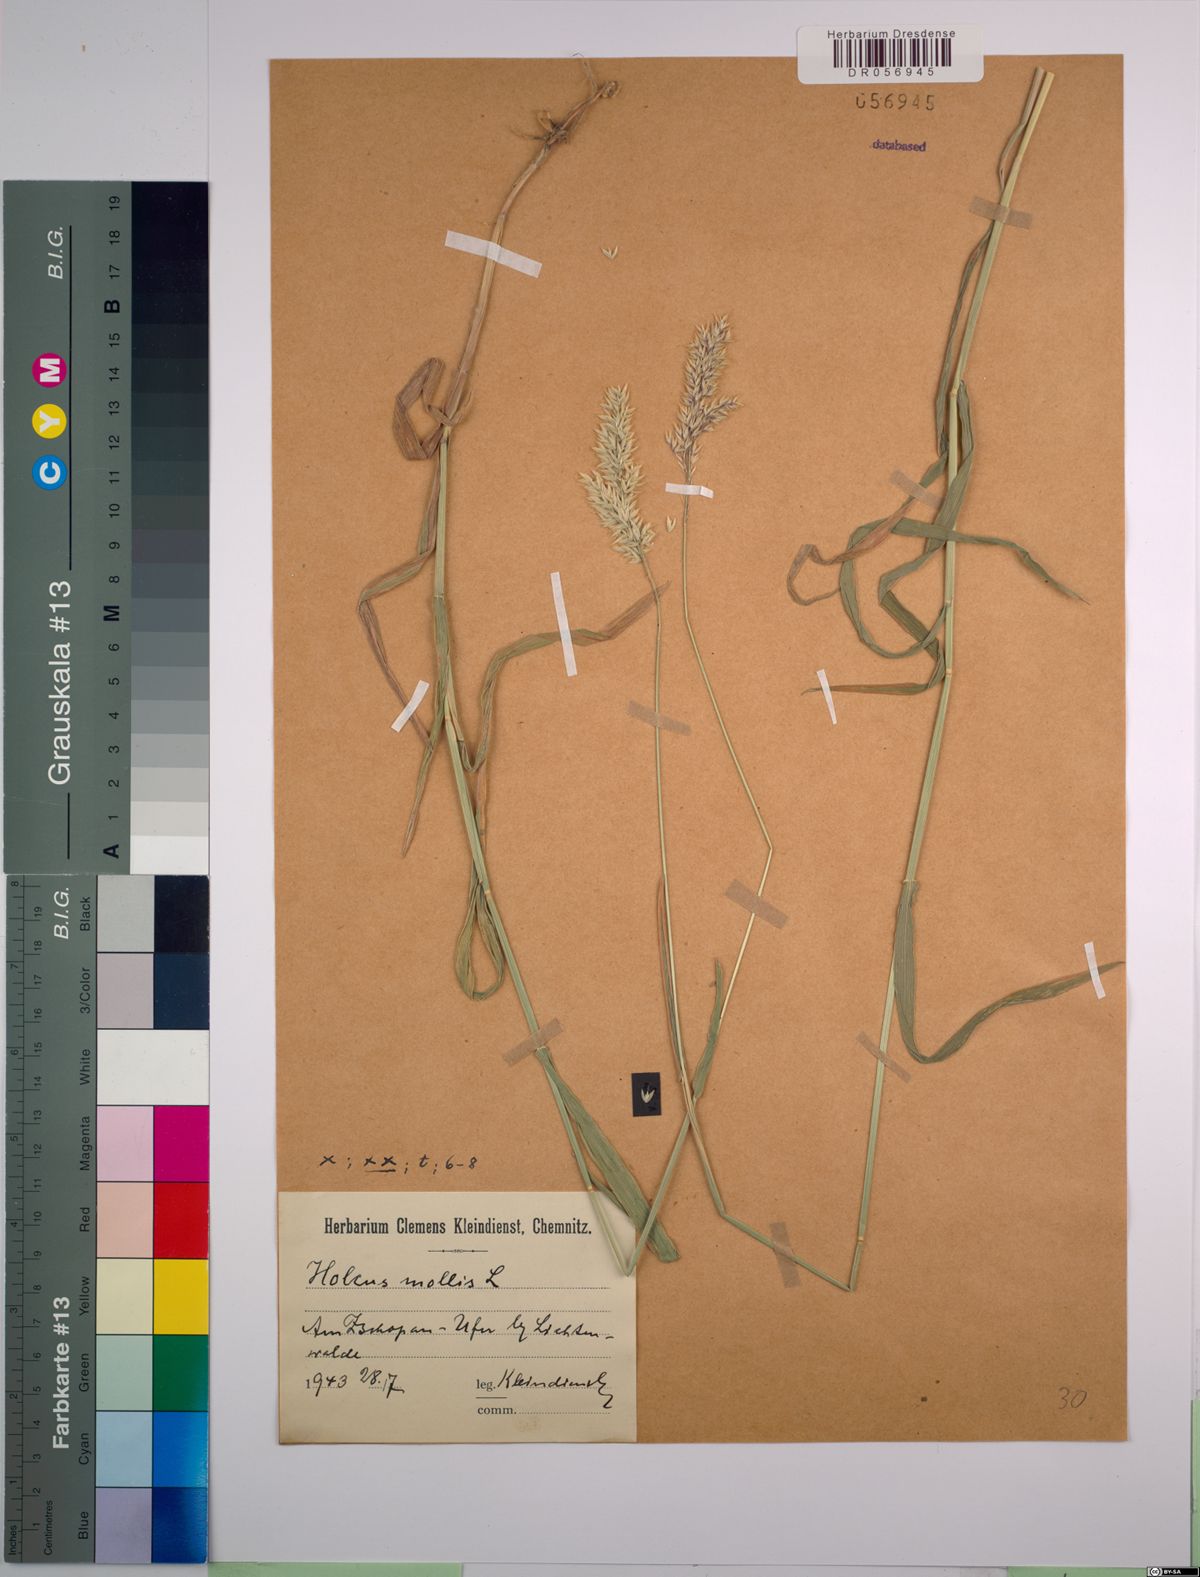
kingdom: Plantae
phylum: Tracheophyta
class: Liliopsida
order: Poales
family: Poaceae
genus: Holcus
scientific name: Holcus mollis
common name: Creeping velvetgrass
